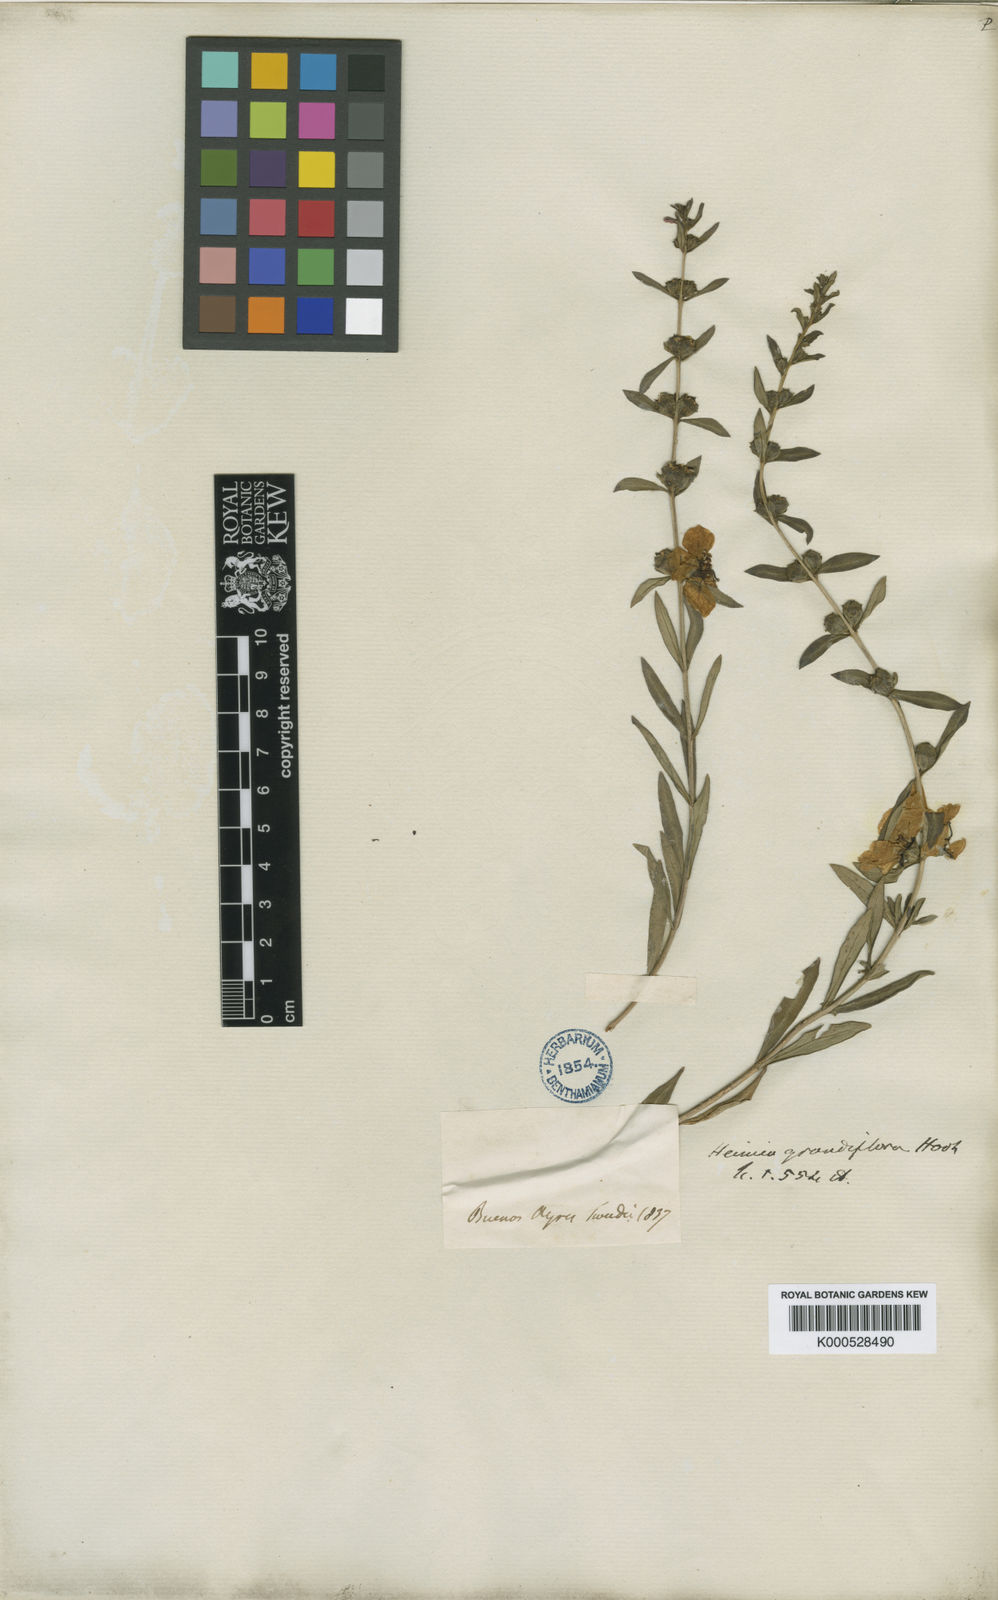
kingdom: Plantae
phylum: Tracheophyta
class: Magnoliopsida
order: Myrtales
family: Lythraceae
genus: Heimia
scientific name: Heimia salicifolia
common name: Willow-leaf heimia
